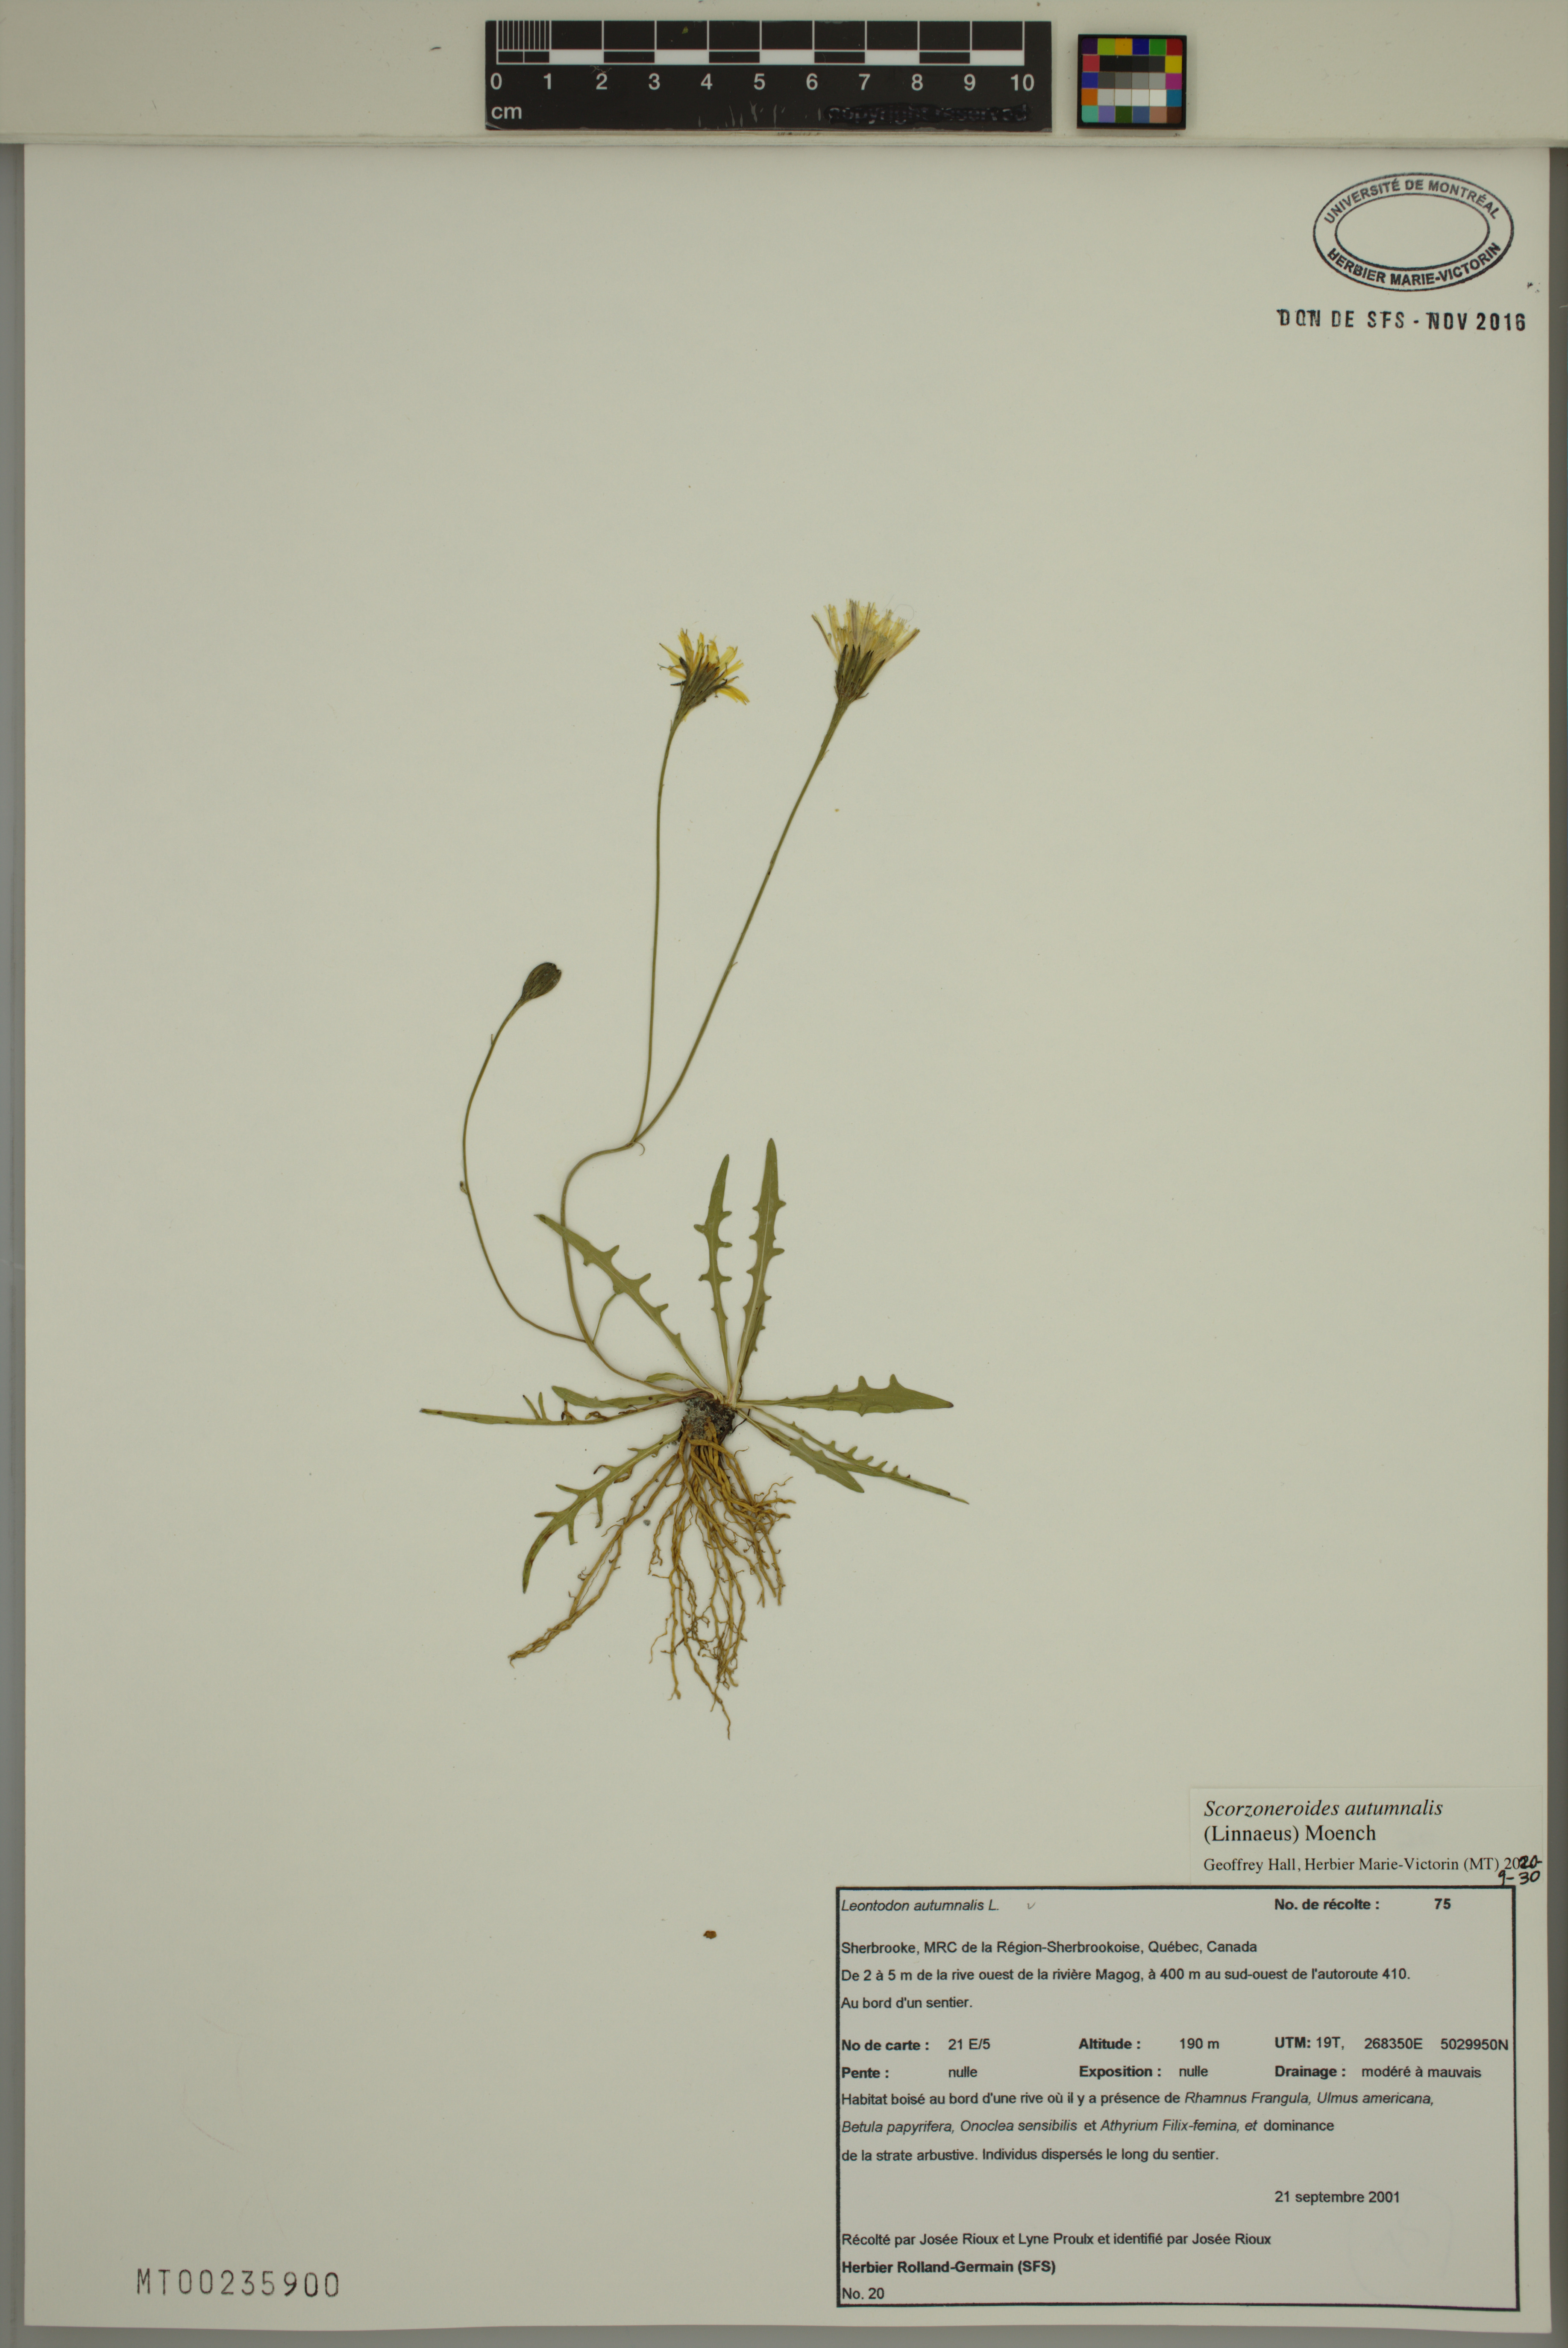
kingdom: Plantae
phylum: Tracheophyta
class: Magnoliopsida
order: Asterales
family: Asteraceae
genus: Scorzoneroides
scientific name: Scorzoneroides autumnalis
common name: Autumn hawkbit
